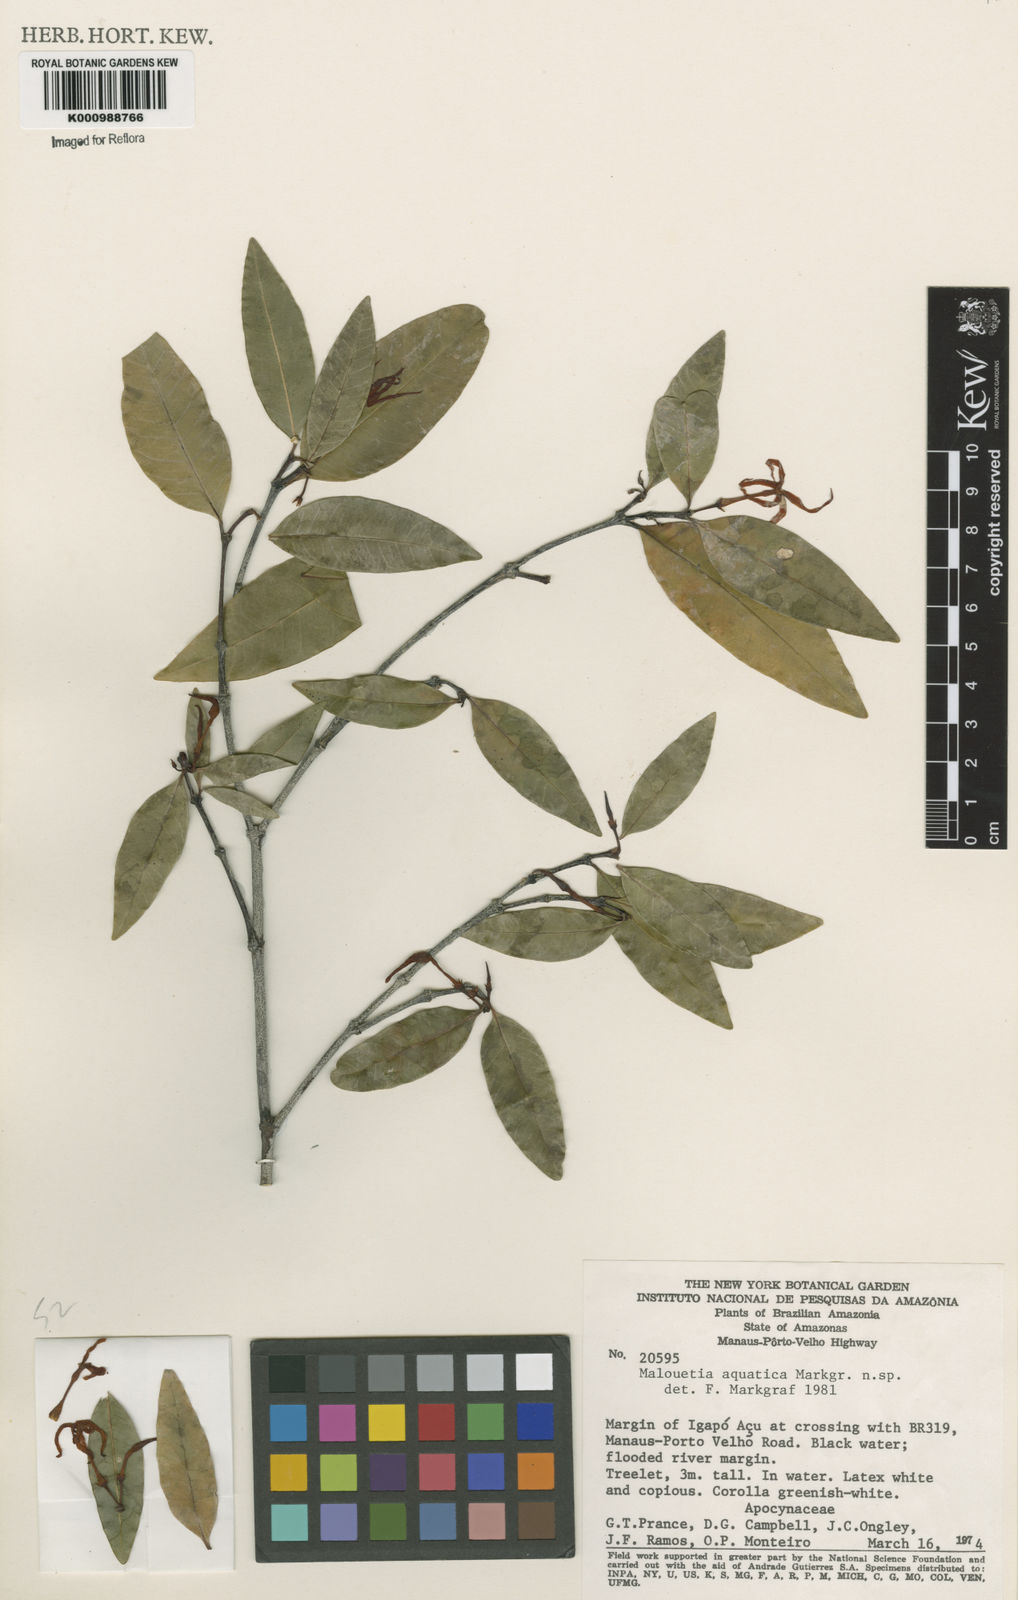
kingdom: Plantae
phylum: Tracheophyta
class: Magnoliopsida
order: Gentianales
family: Apocynaceae
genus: Malouetia
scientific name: Malouetia aquatica
